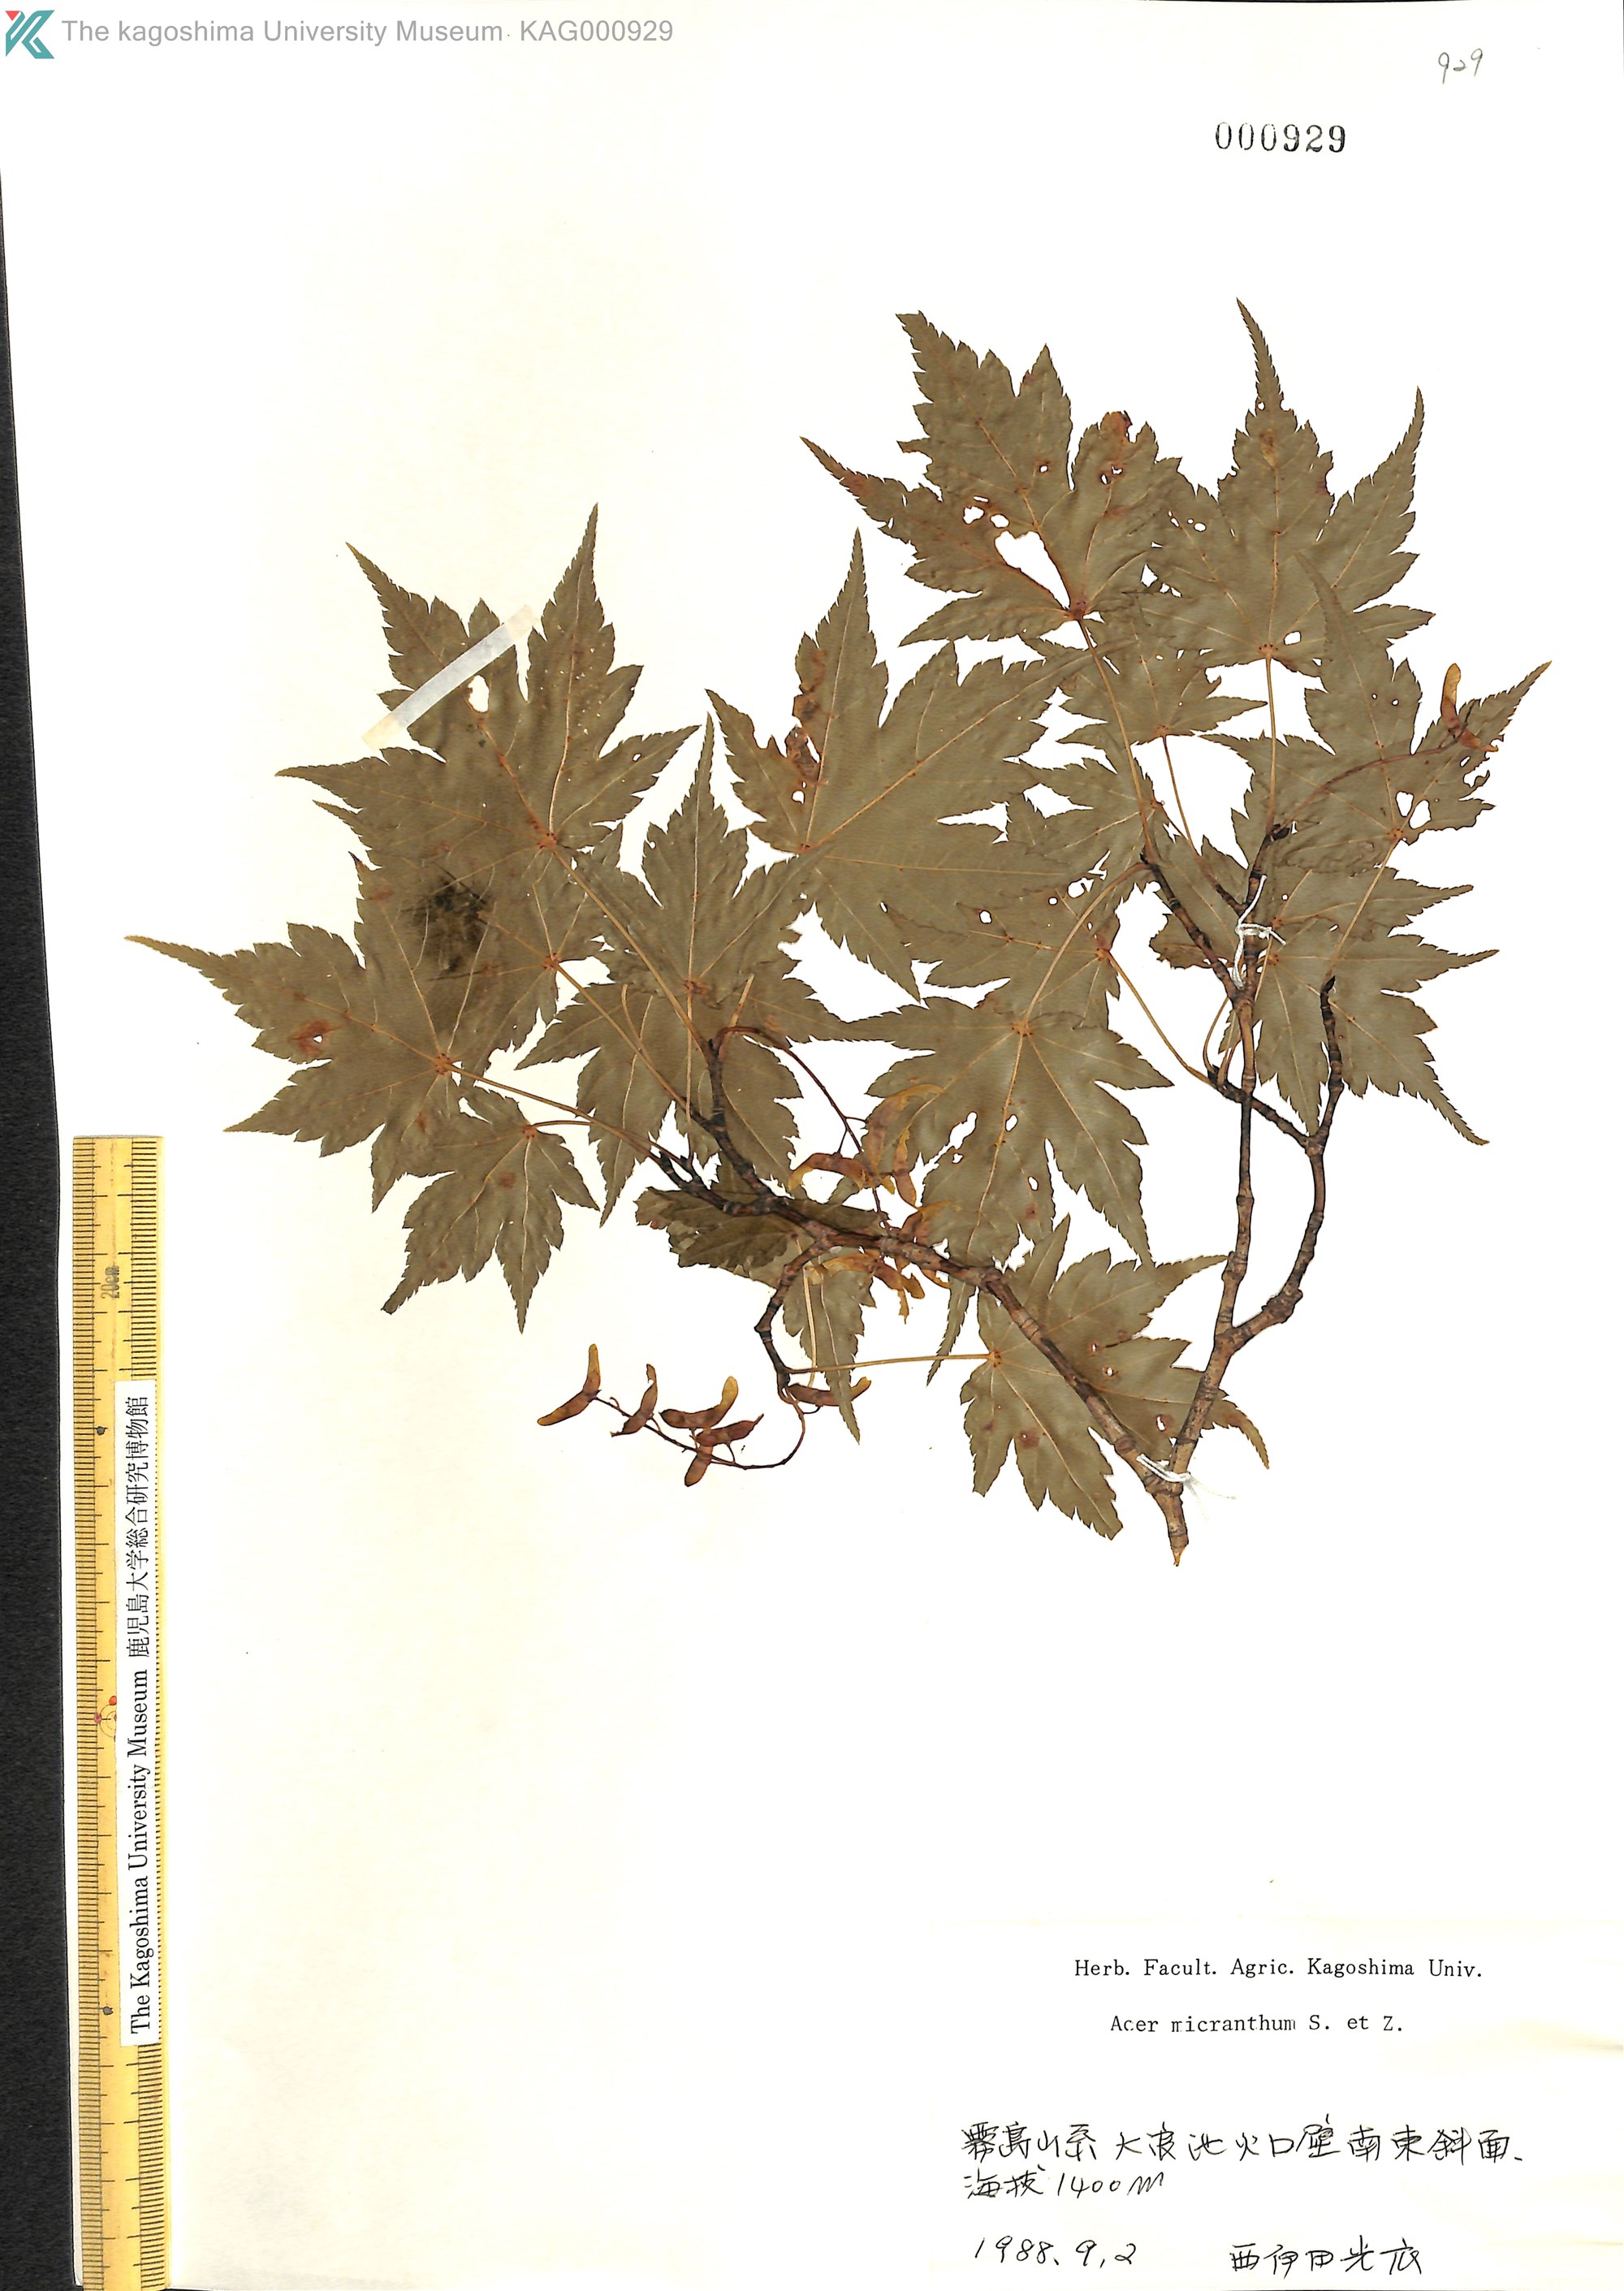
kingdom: Plantae
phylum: Tracheophyta
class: Magnoliopsida
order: Sapindales
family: Sapindaceae
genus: Acer
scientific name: Acer micranthum
